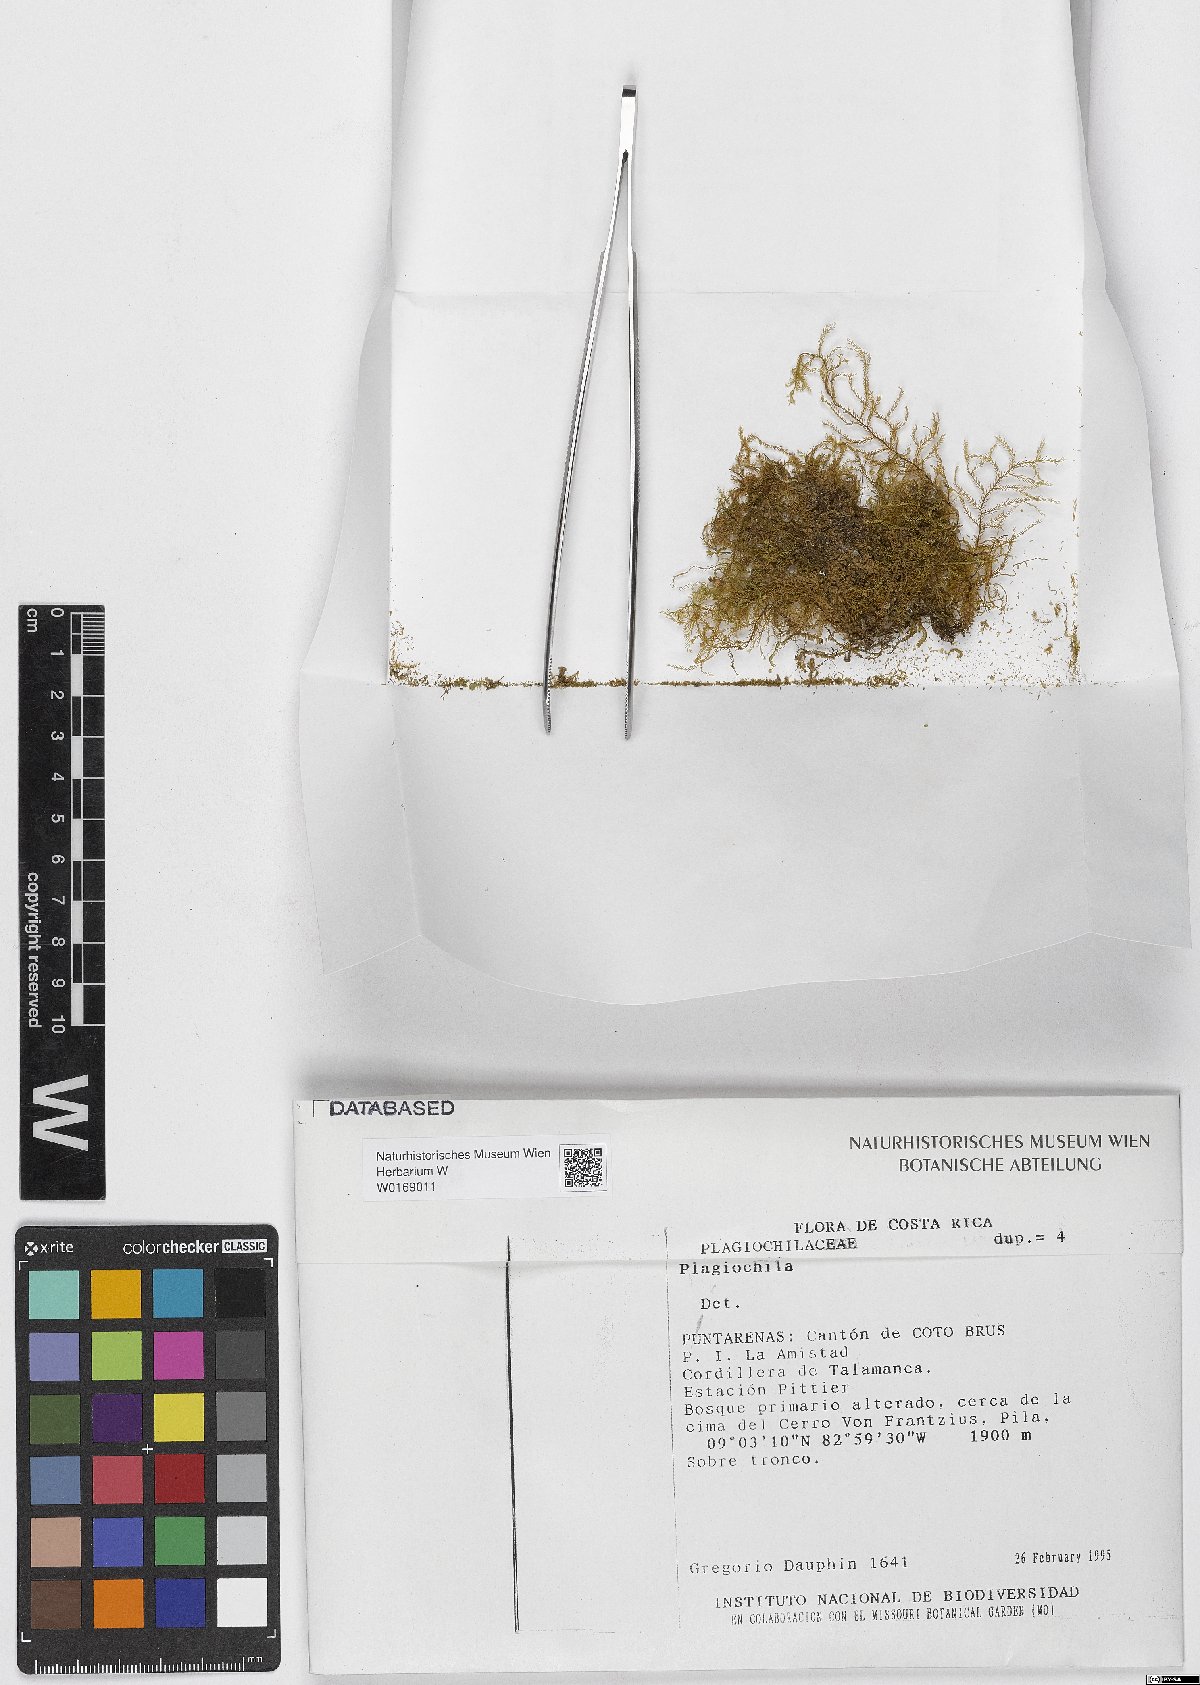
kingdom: Plantae
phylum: Marchantiophyta
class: Jungermanniopsida
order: Jungermanniales
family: Plagiochilaceae
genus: Plagiochila
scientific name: Plagiochila
